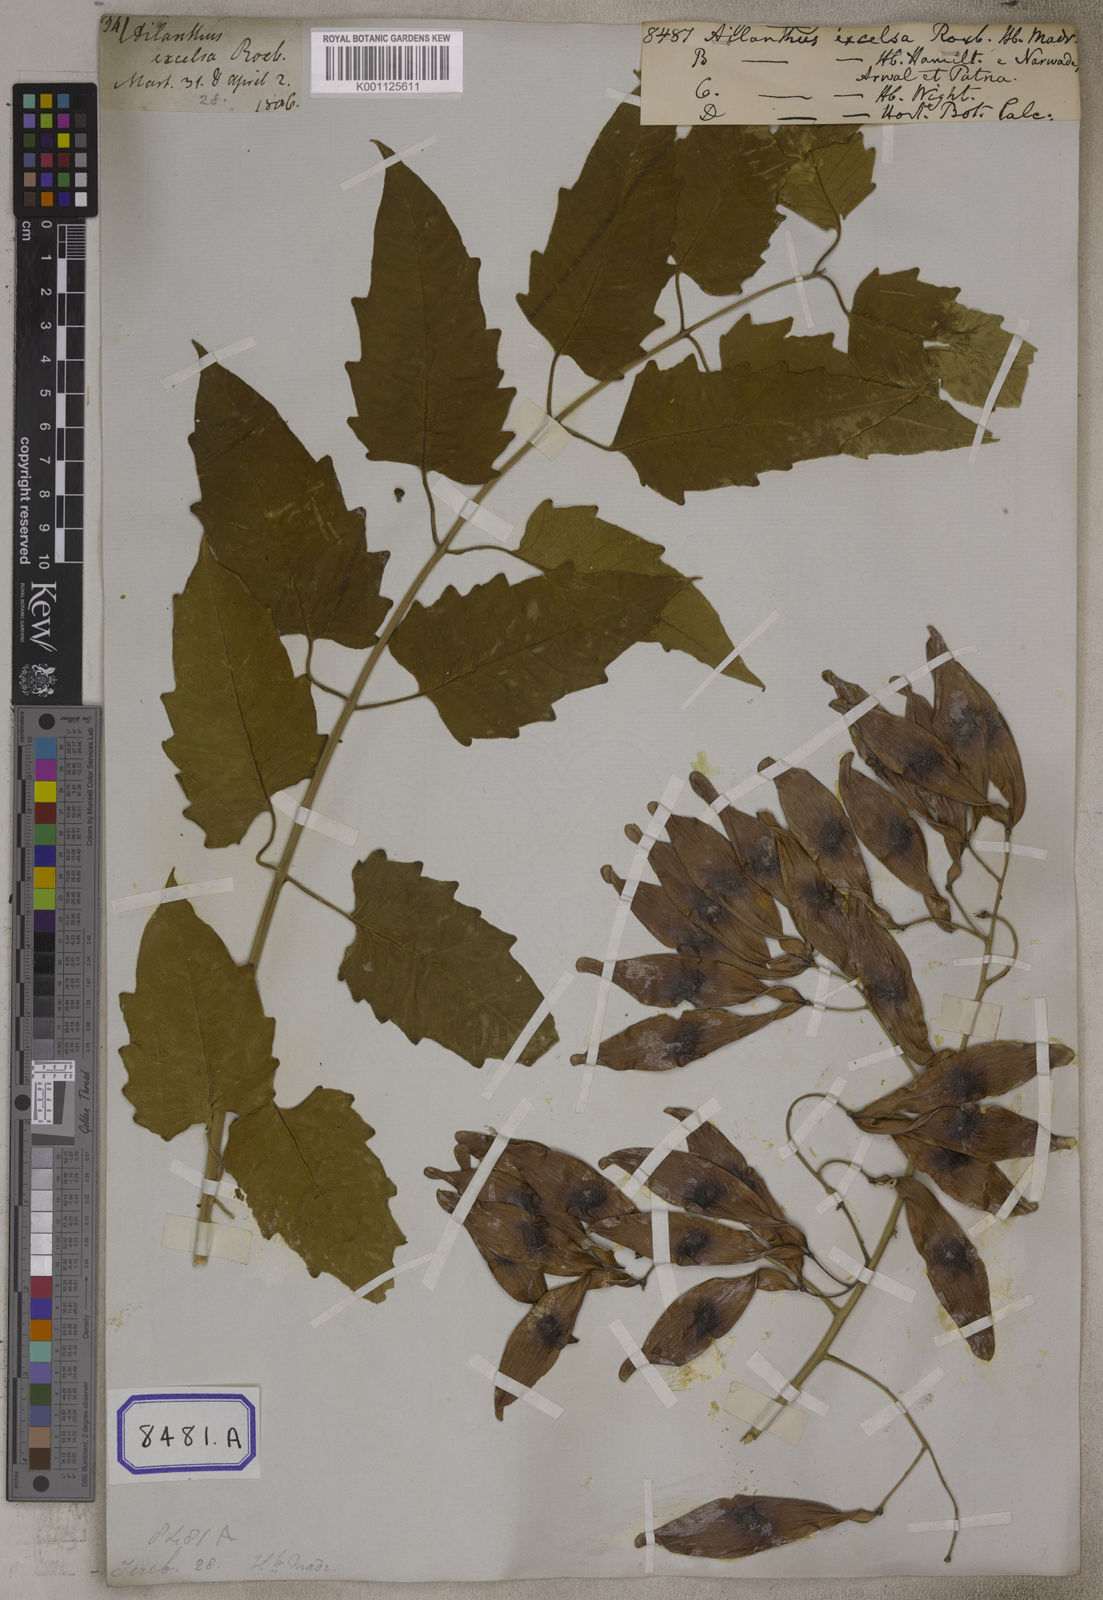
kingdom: Plantae
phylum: Tracheophyta
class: Magnoliopsida
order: Sapindales
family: Simaroubaceae
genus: Ailanthus
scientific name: Ailanthus excelsa
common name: Indian tree-of-heaven
